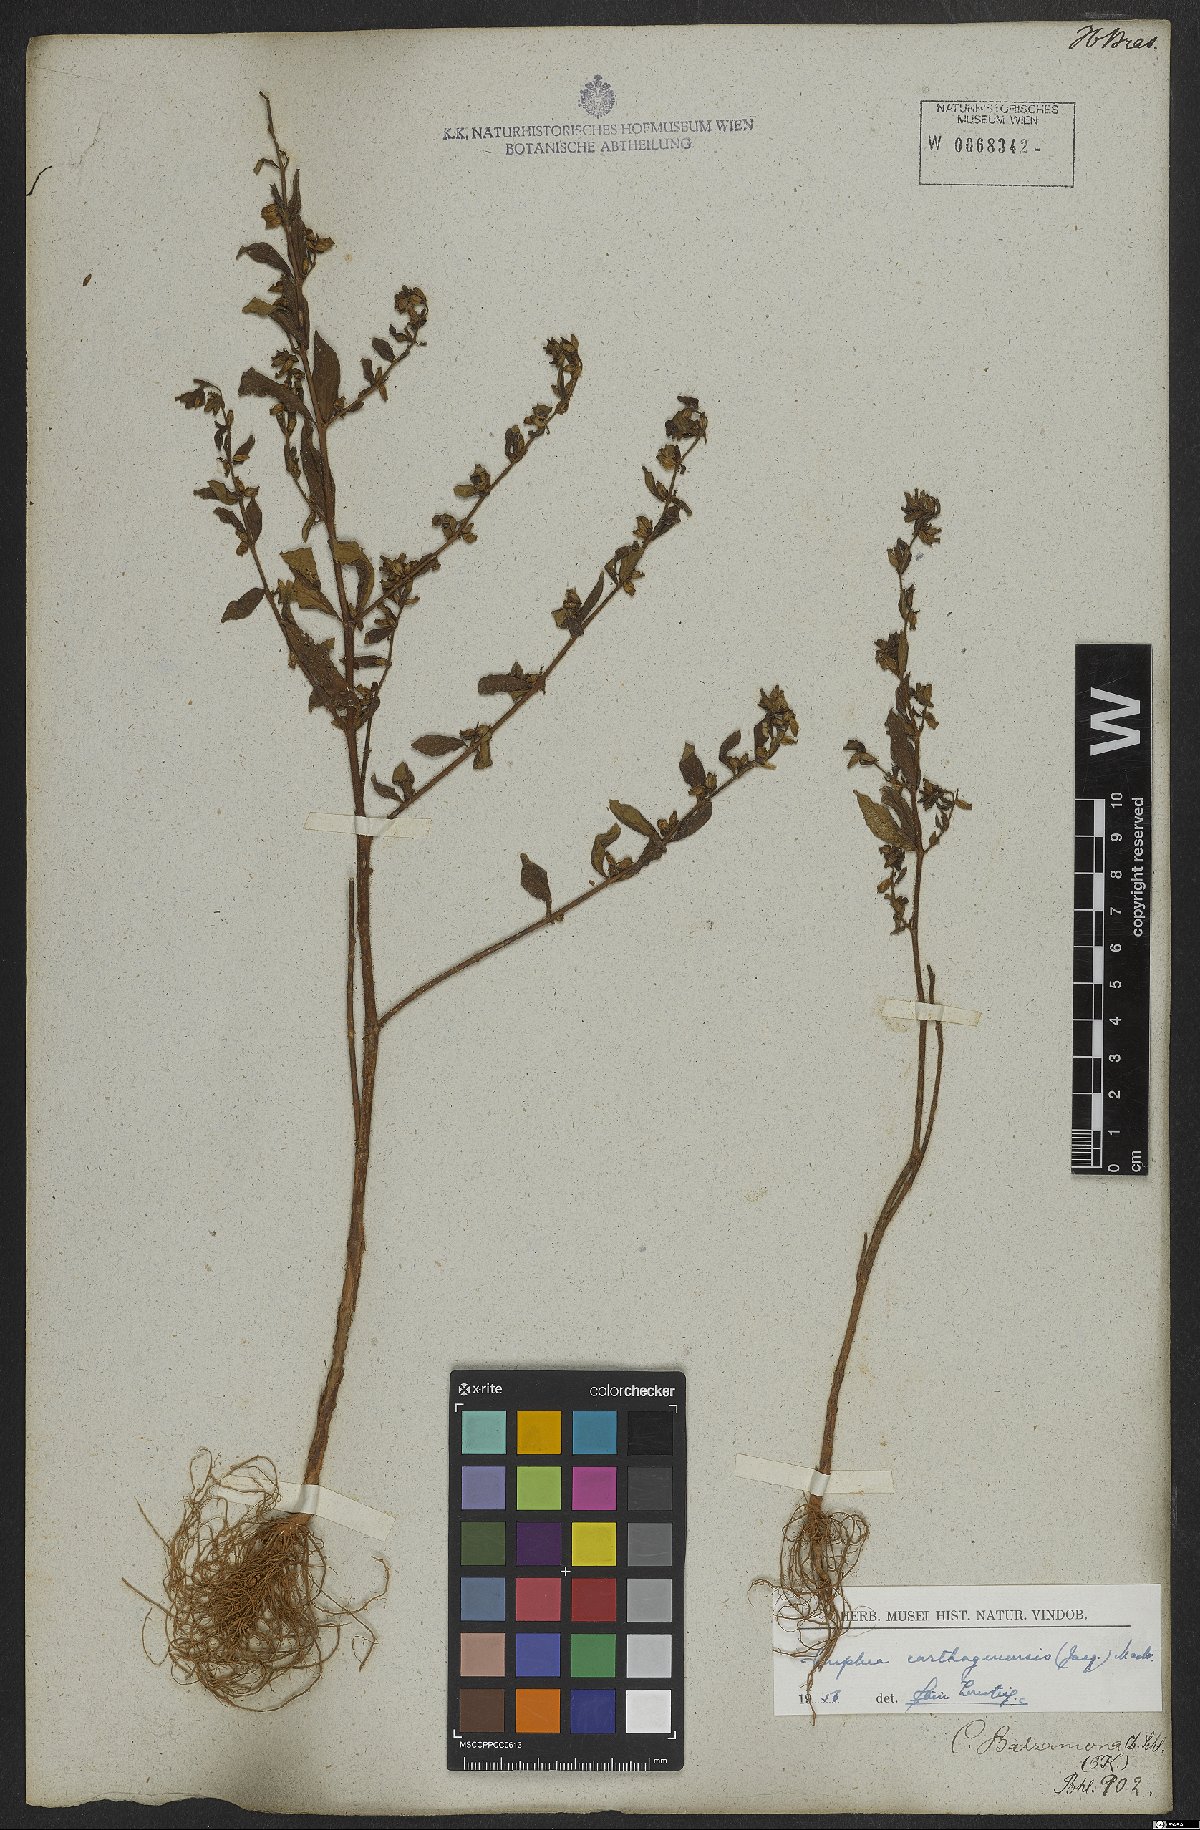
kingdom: Plantae
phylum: Tracheophyta
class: Magnoliopsida
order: Myrtales
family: Lythraceae
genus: Cuphea
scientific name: Cuphea carthagenensis
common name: Colombian waxweed
